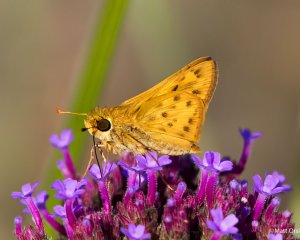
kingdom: Animalia
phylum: Arthropoda
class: Insecta
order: Lepidoptera
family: Hesperiidae
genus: Hylephila
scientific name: Hylephila phyleus
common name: Fiery Skipper
